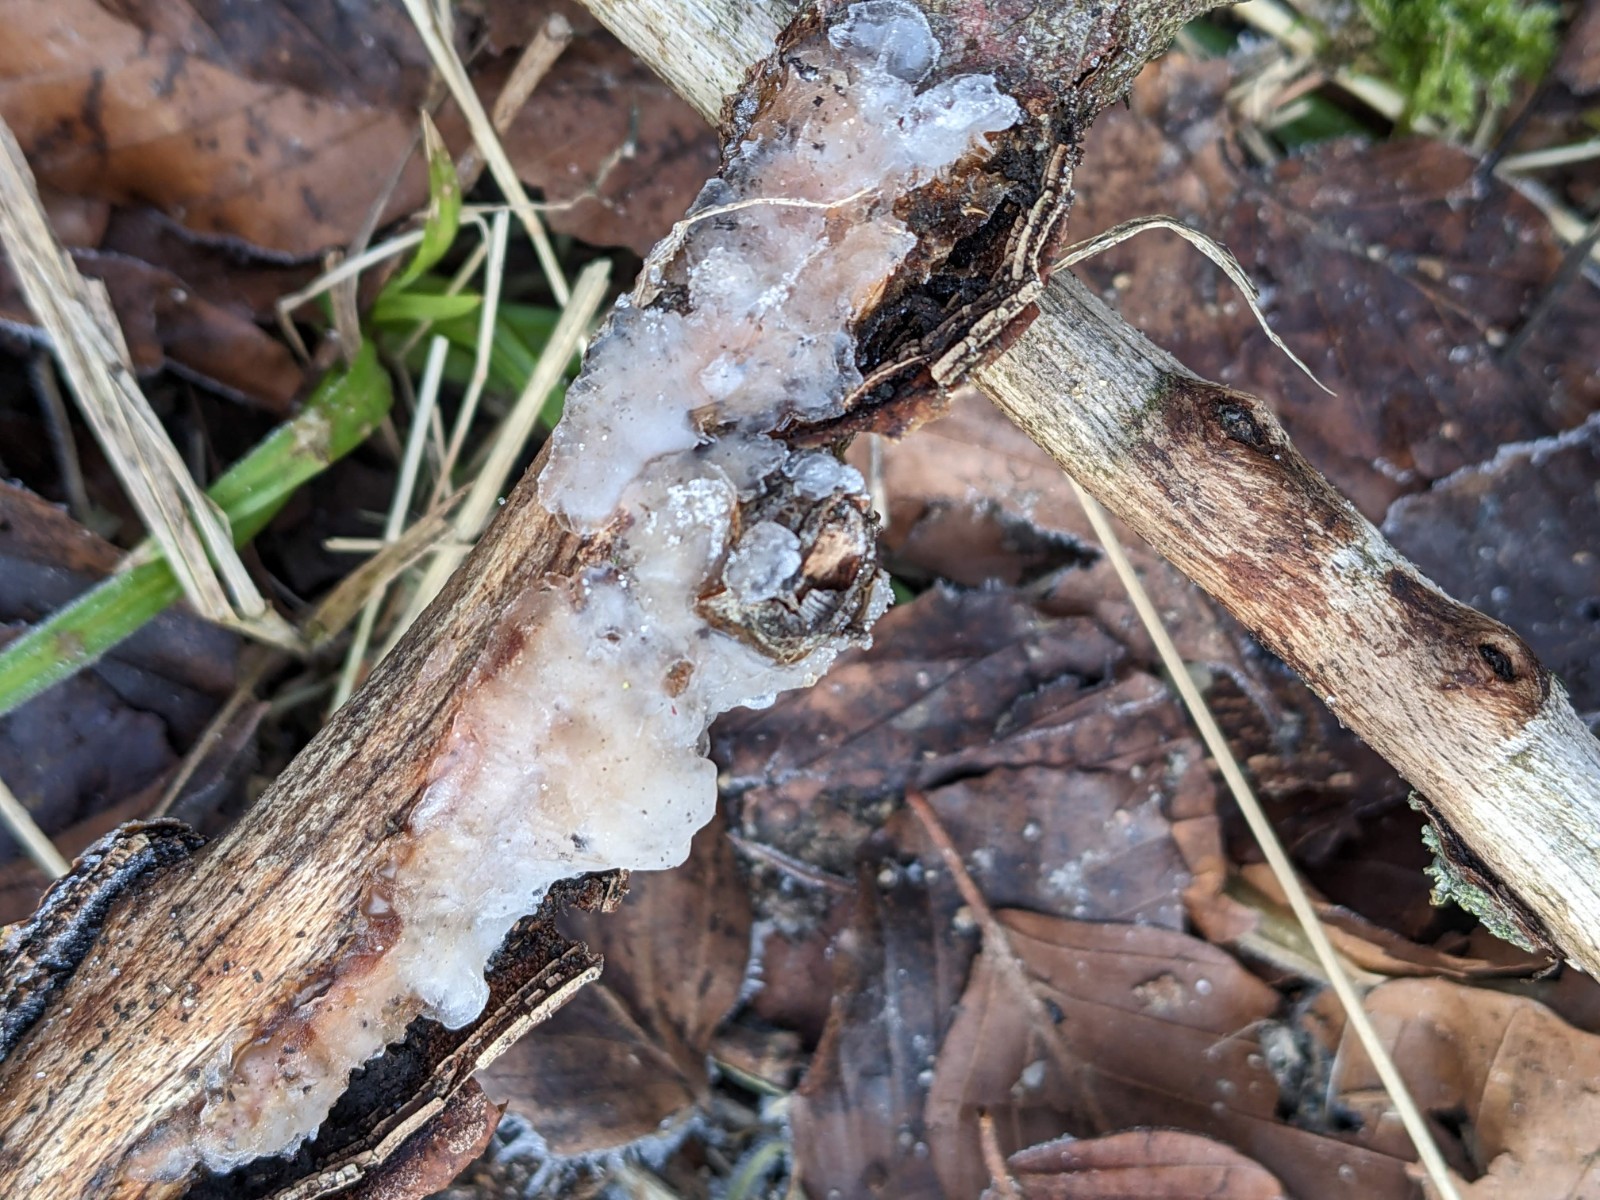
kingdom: Fungi
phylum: Basidiomycota
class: Agaricomycetes
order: Auriculariales
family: Auriculariaceae
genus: Exidia
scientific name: Exidia thuretiana
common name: hvidlig bævretop
